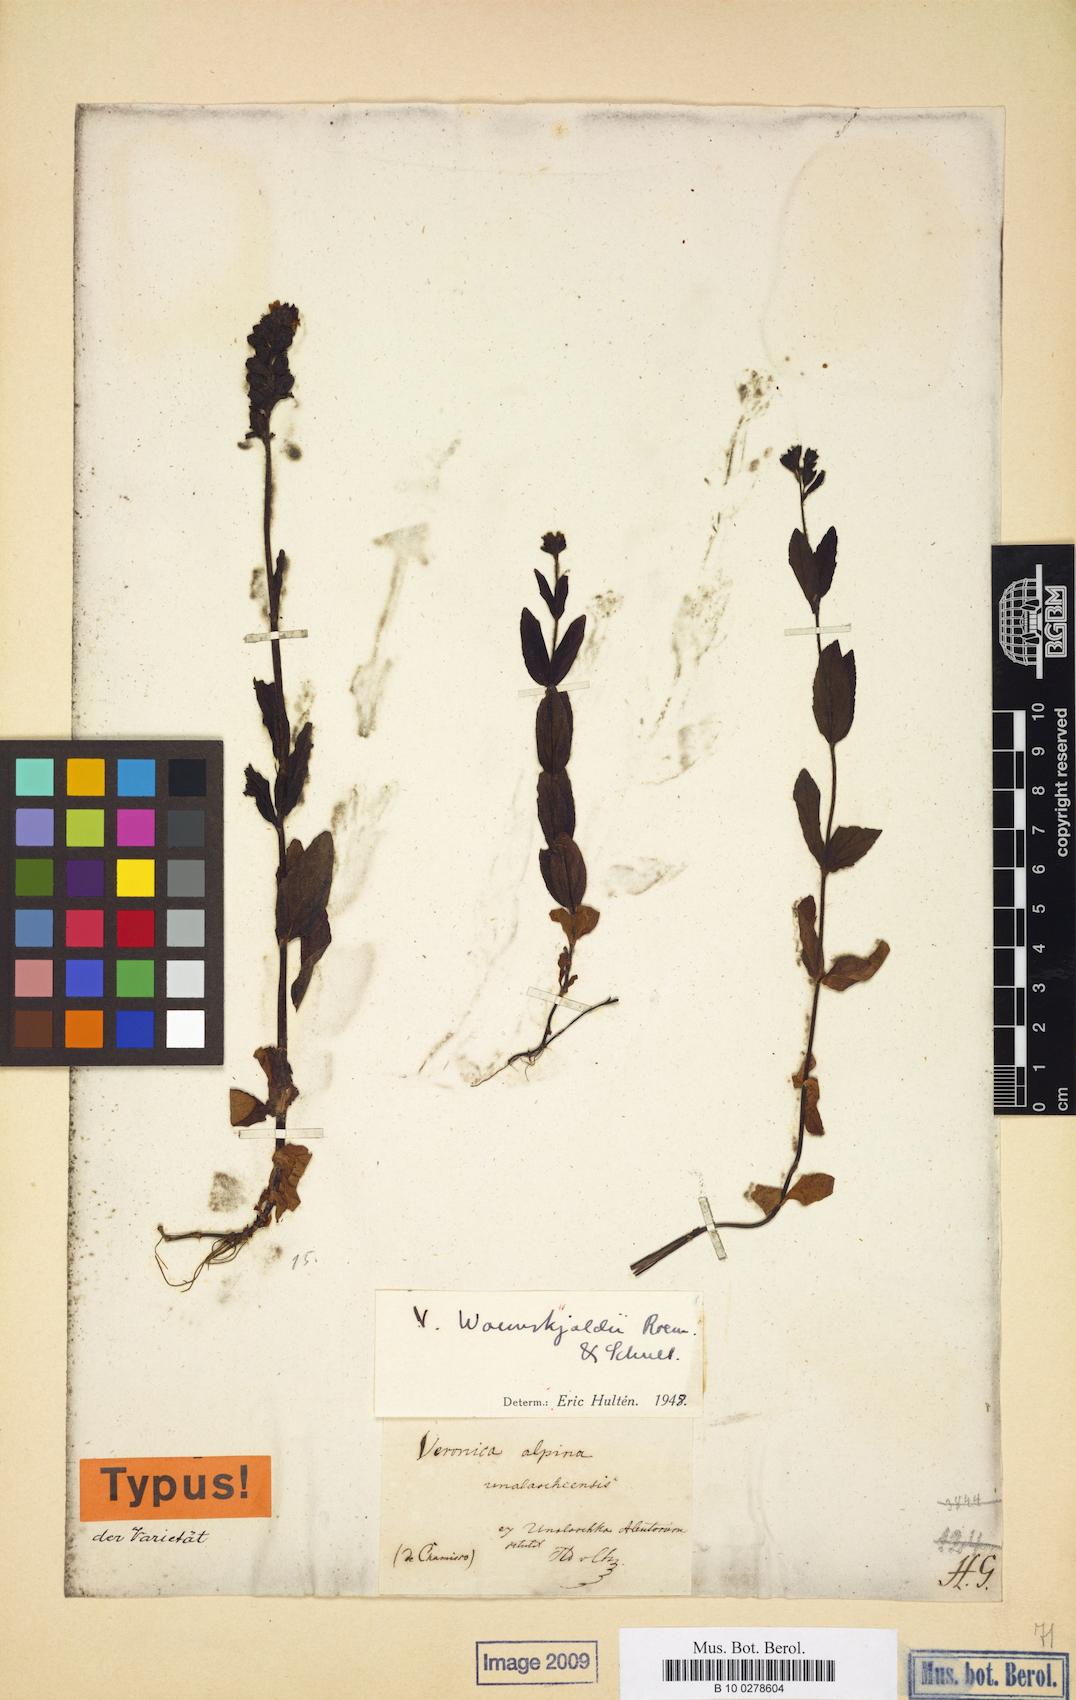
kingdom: Plantae
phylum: Tracheophyta
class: Magnoliopsida
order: Lamiales
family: Plantaginaceae
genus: Veronica
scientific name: Veronica wormskjoldii
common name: American alpine speedwell
